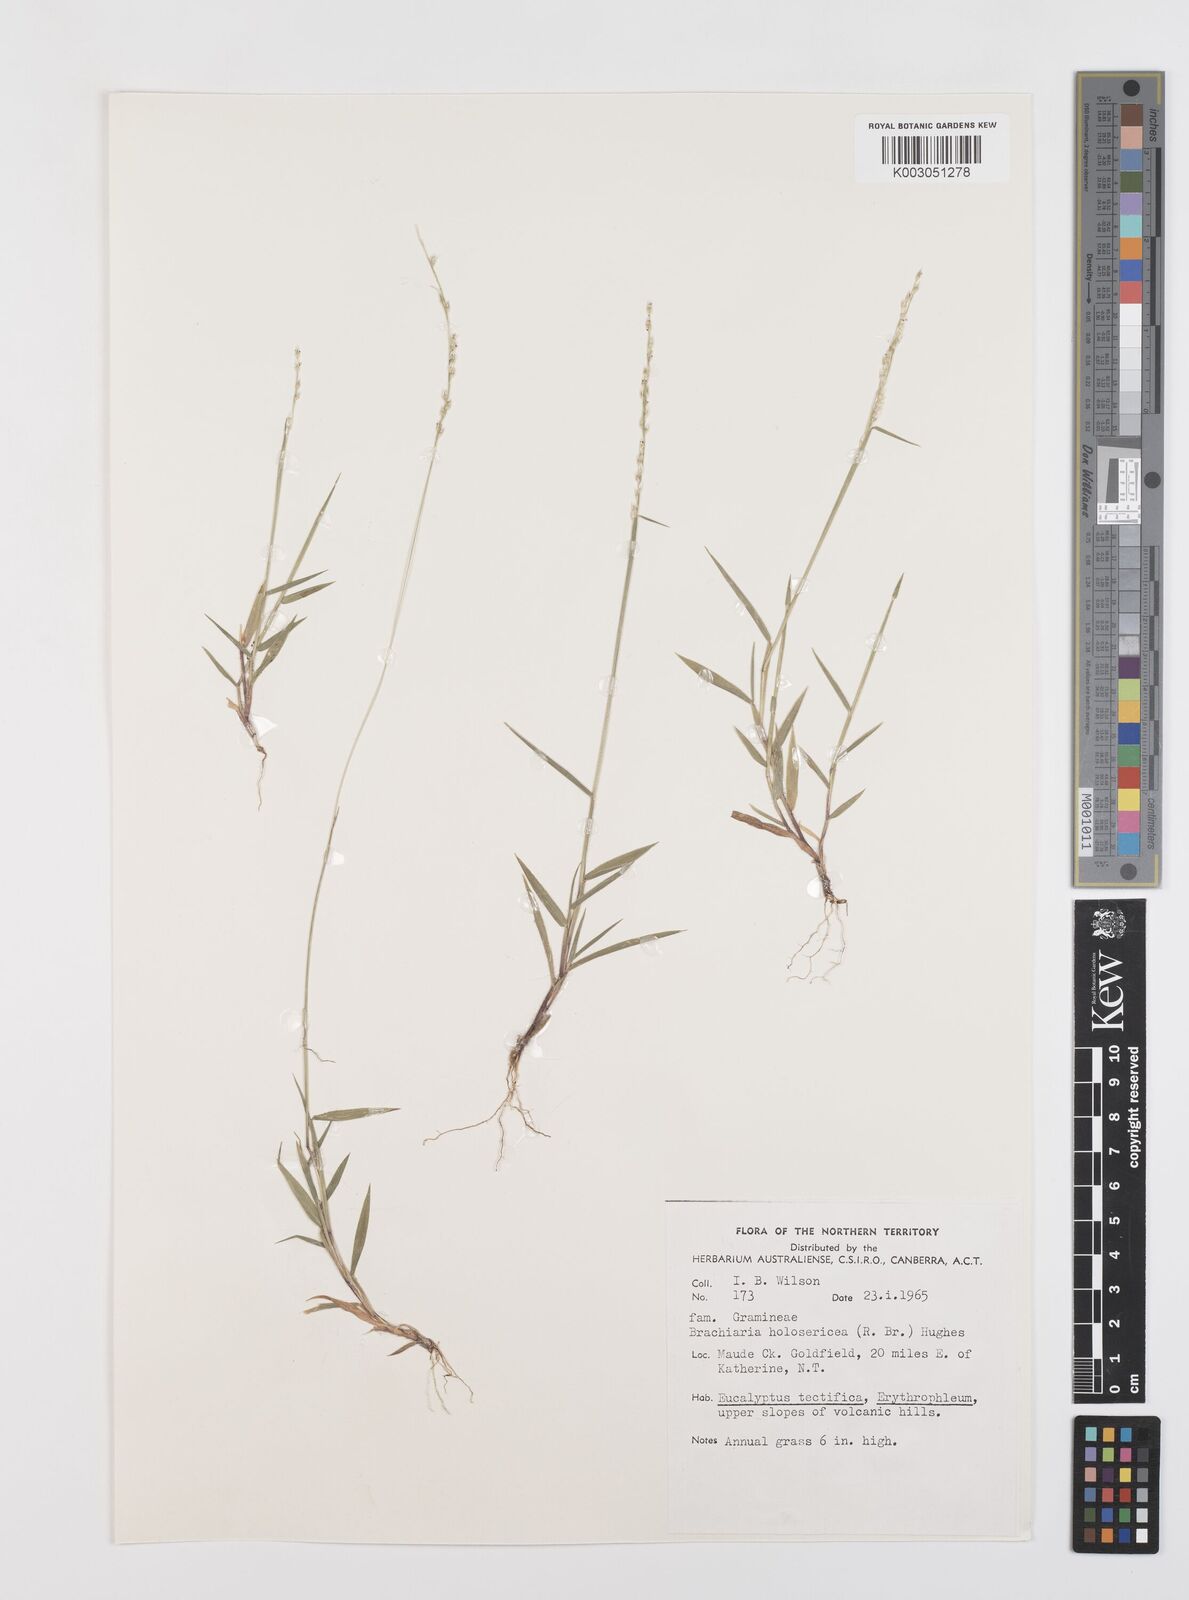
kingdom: Plantae
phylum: Tracheophyta
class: Liliopsida
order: Poales
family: Poaceae
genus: Urochloa
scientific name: Urochloa holosericea
